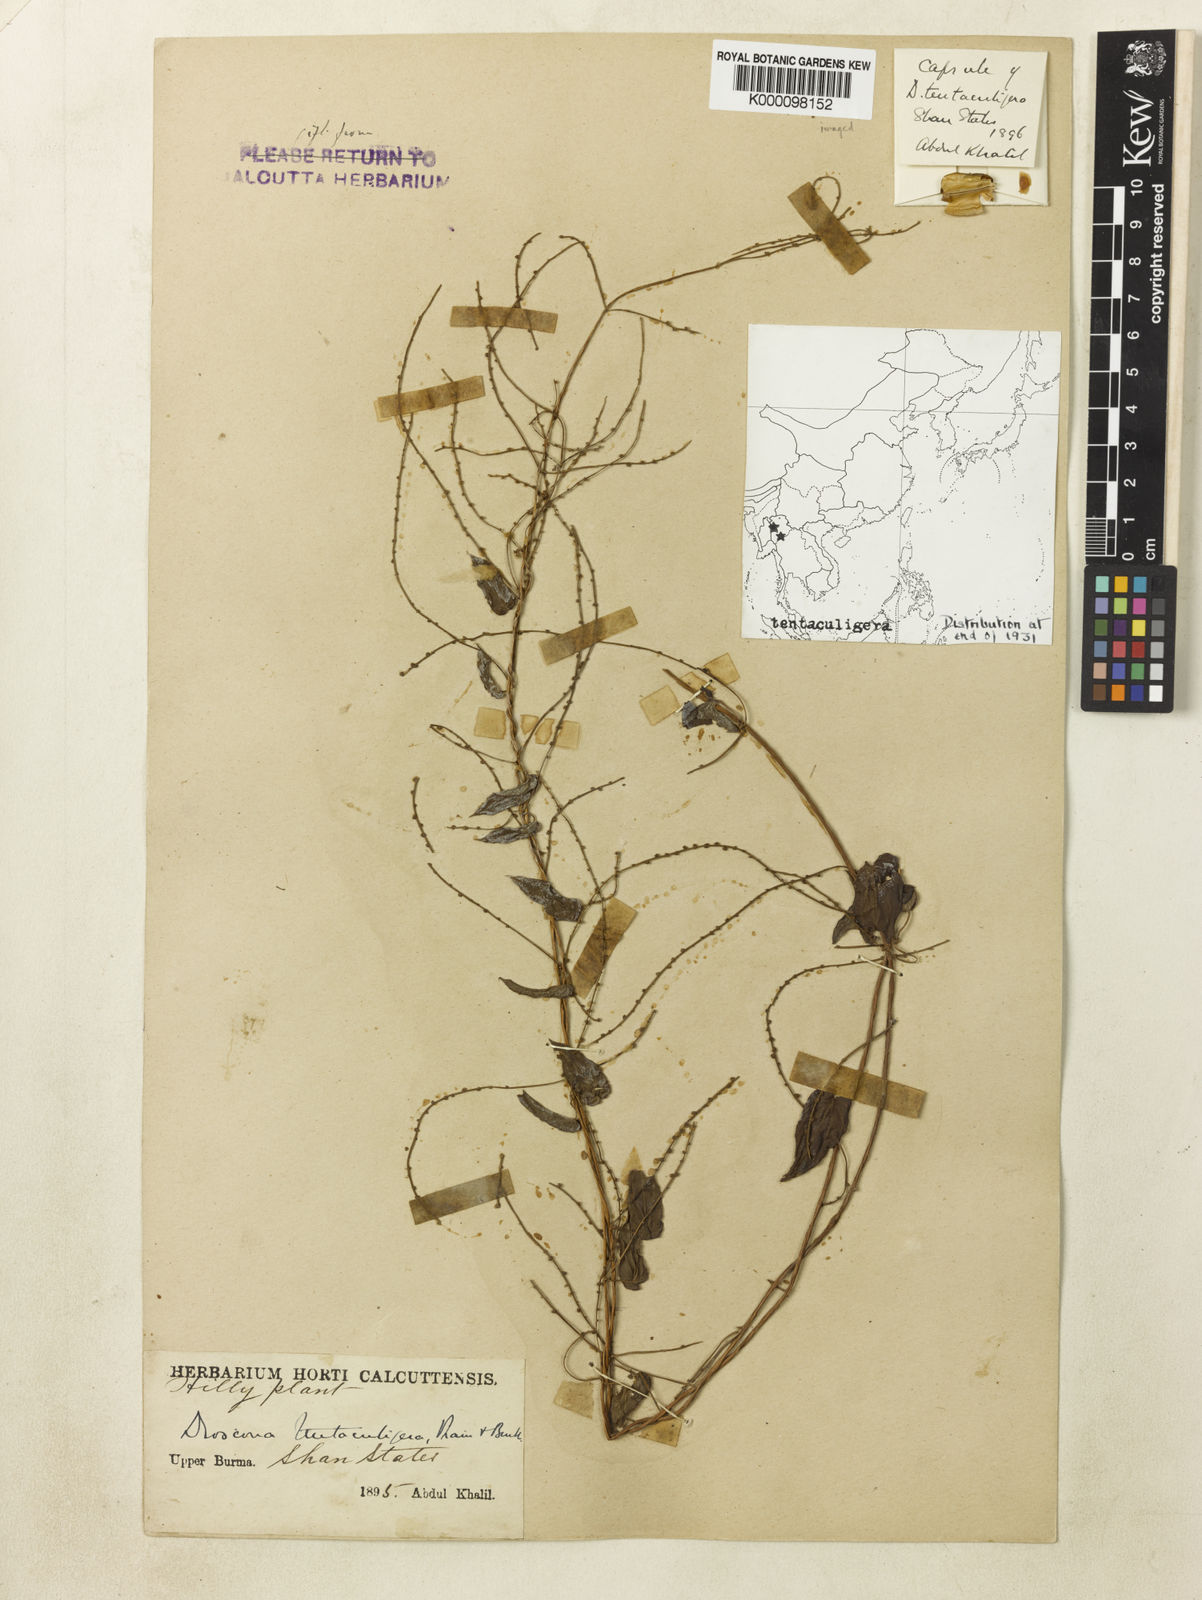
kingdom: Plantae
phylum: Tracheophyta
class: Liliopsida
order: Dioscoreales
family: Dioscoreaceae
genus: Dioscorea
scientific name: Dioscorea tentaculigera
